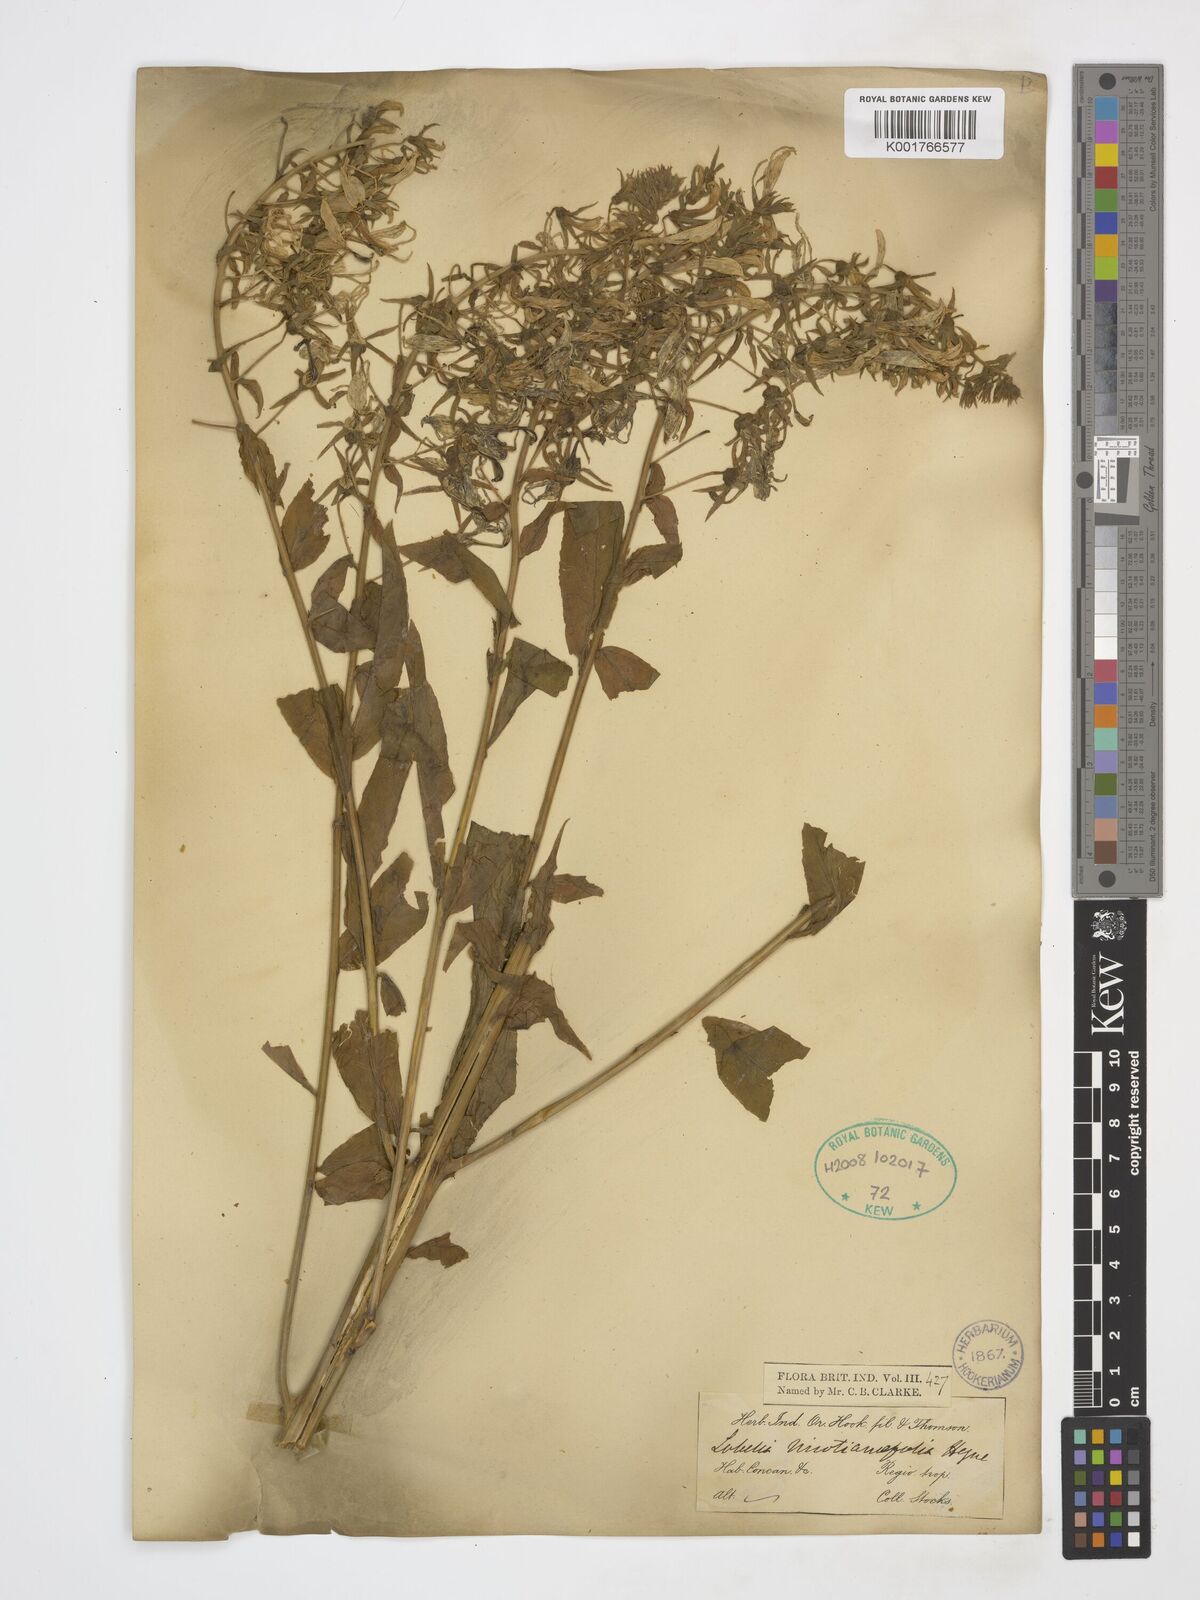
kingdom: Plantae
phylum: Tracheophyta
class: Magnoliopsida
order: Asterales
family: Campanulaceae
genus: Lobelia
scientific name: Lobelia nicotianifolia
